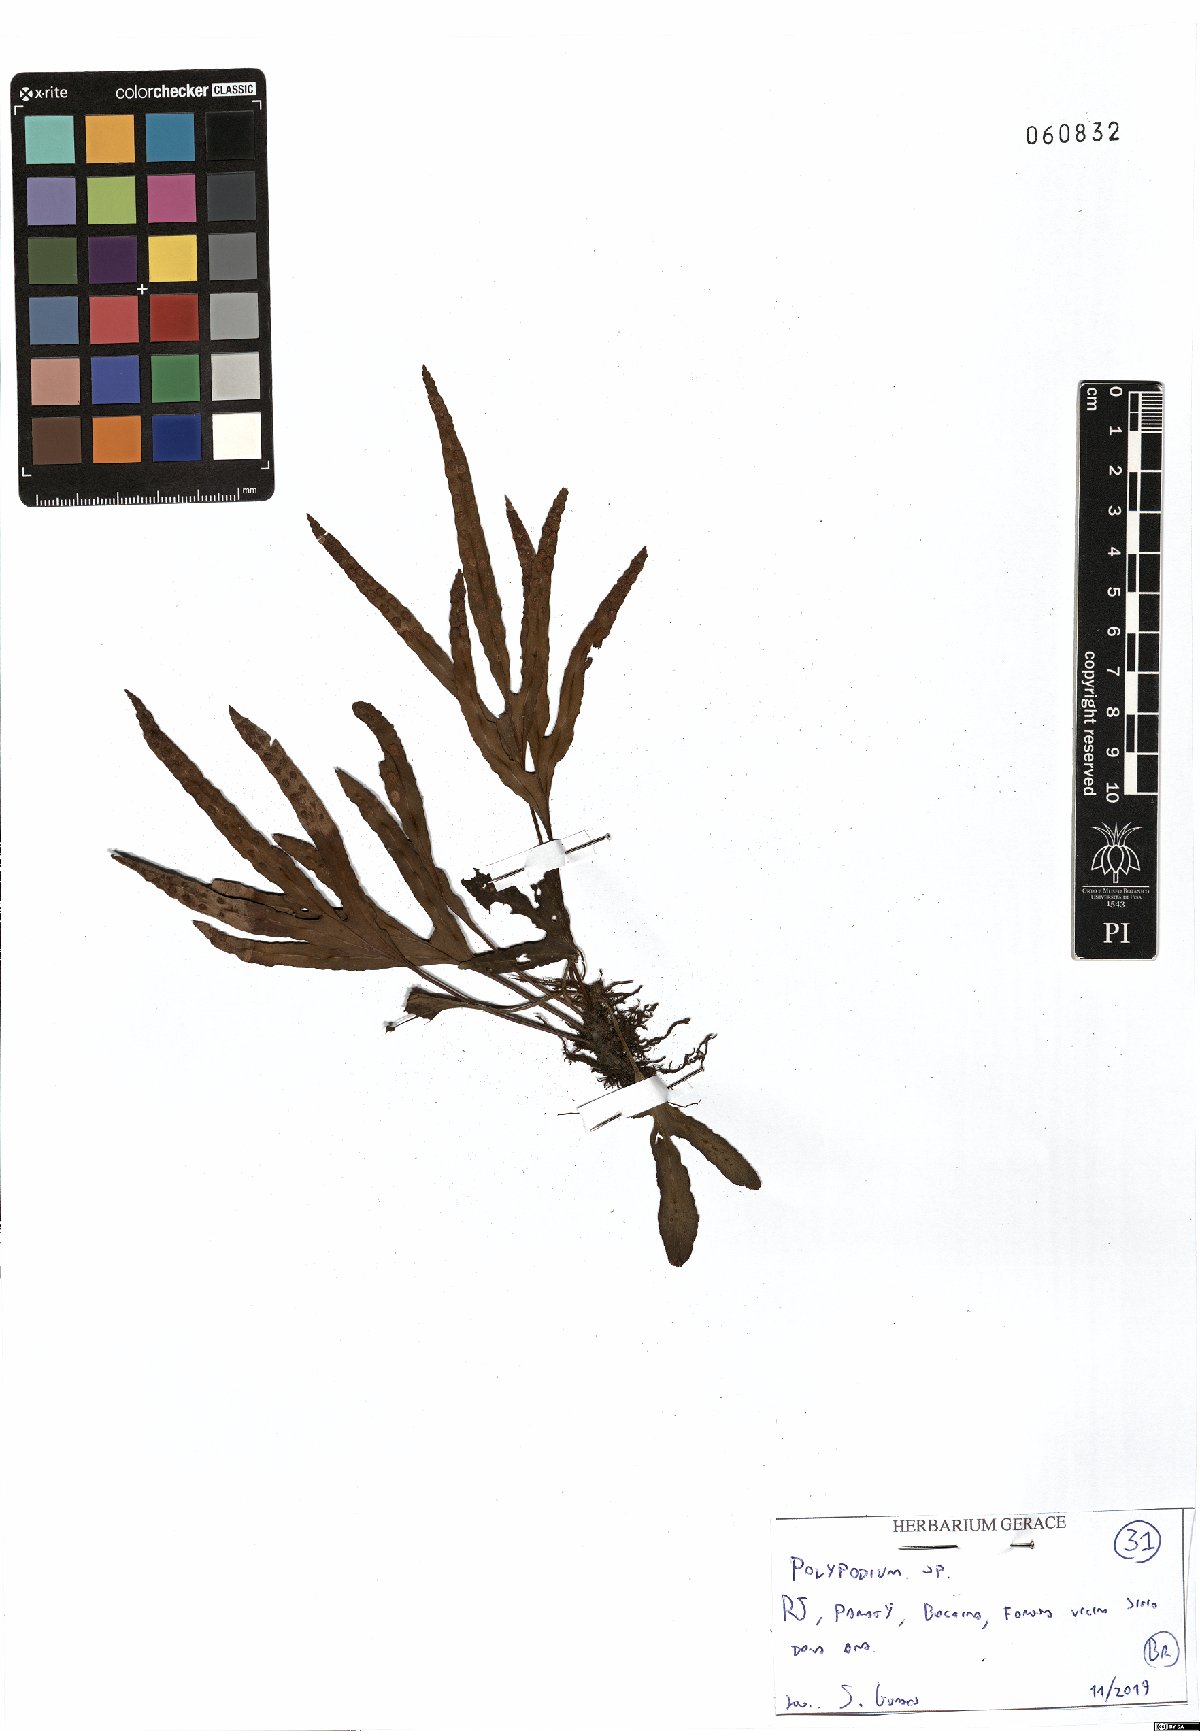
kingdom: Plantae
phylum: Tracheophyta
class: Polypodiopsida
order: Polypodiales
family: Polypodiaceae
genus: Polypodium
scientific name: Polypodium
